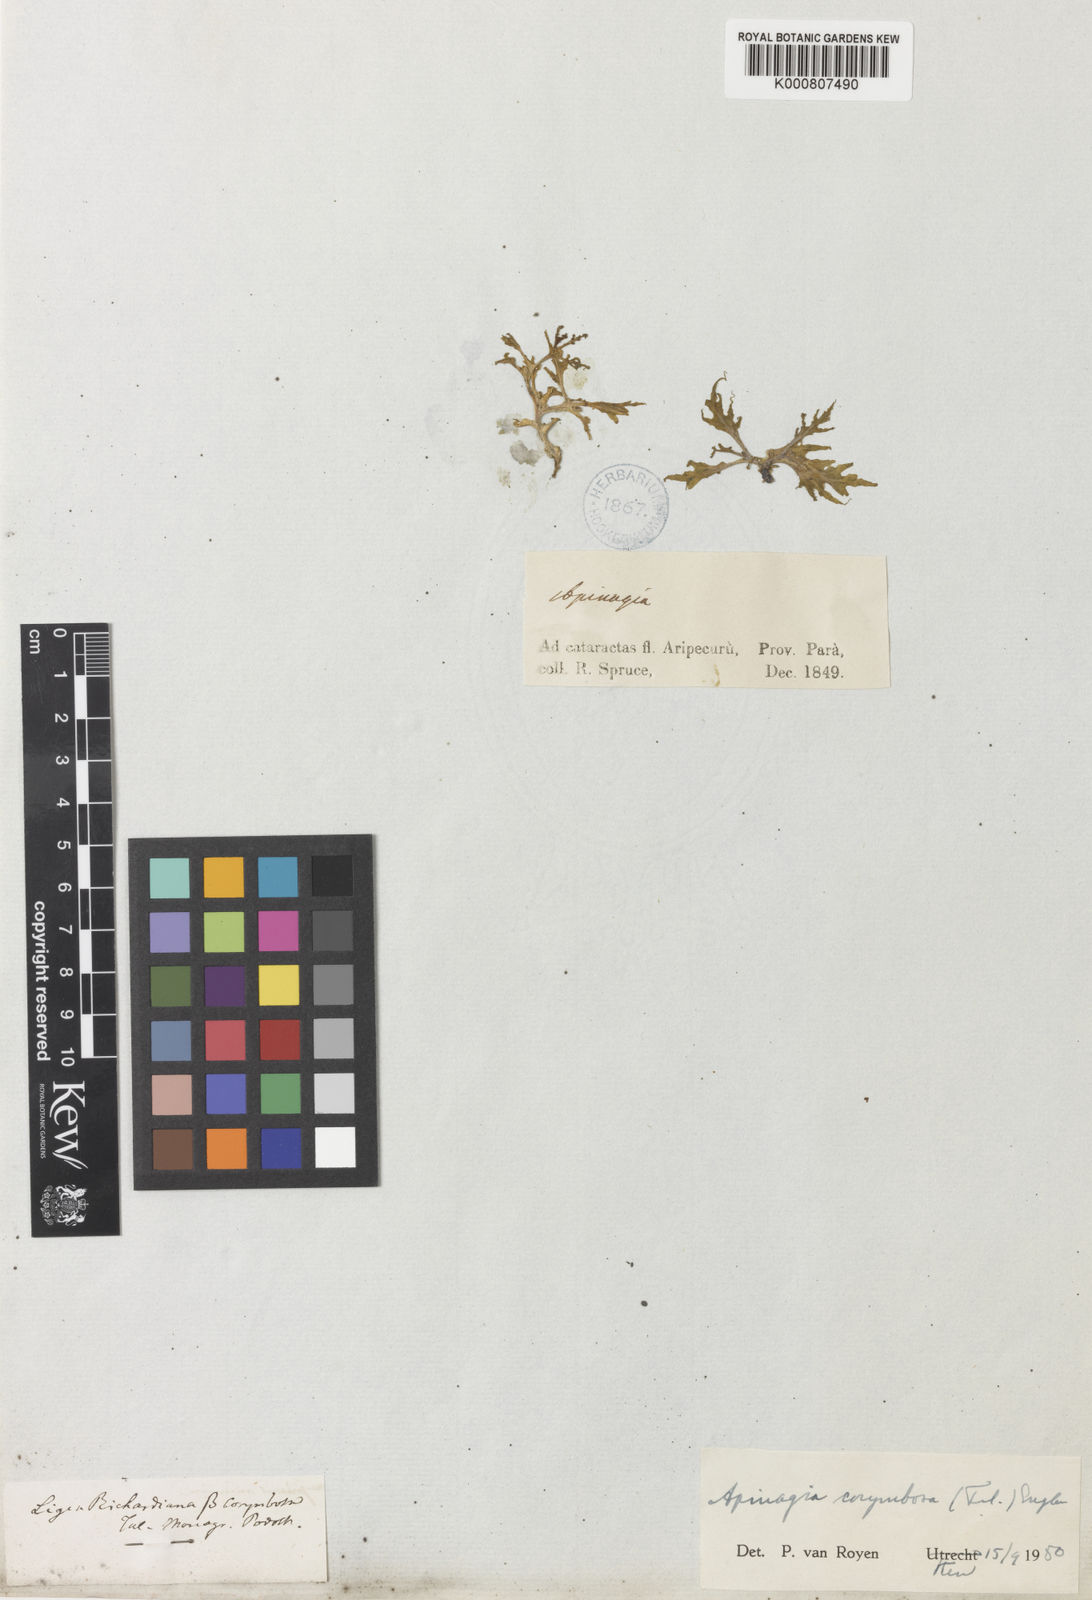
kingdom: Plantae
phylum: Tracheophyta
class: Magnoliopsida
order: Malpighiales
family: Podostemaceae
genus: Apinagia
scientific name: Apinagia corymbosa
